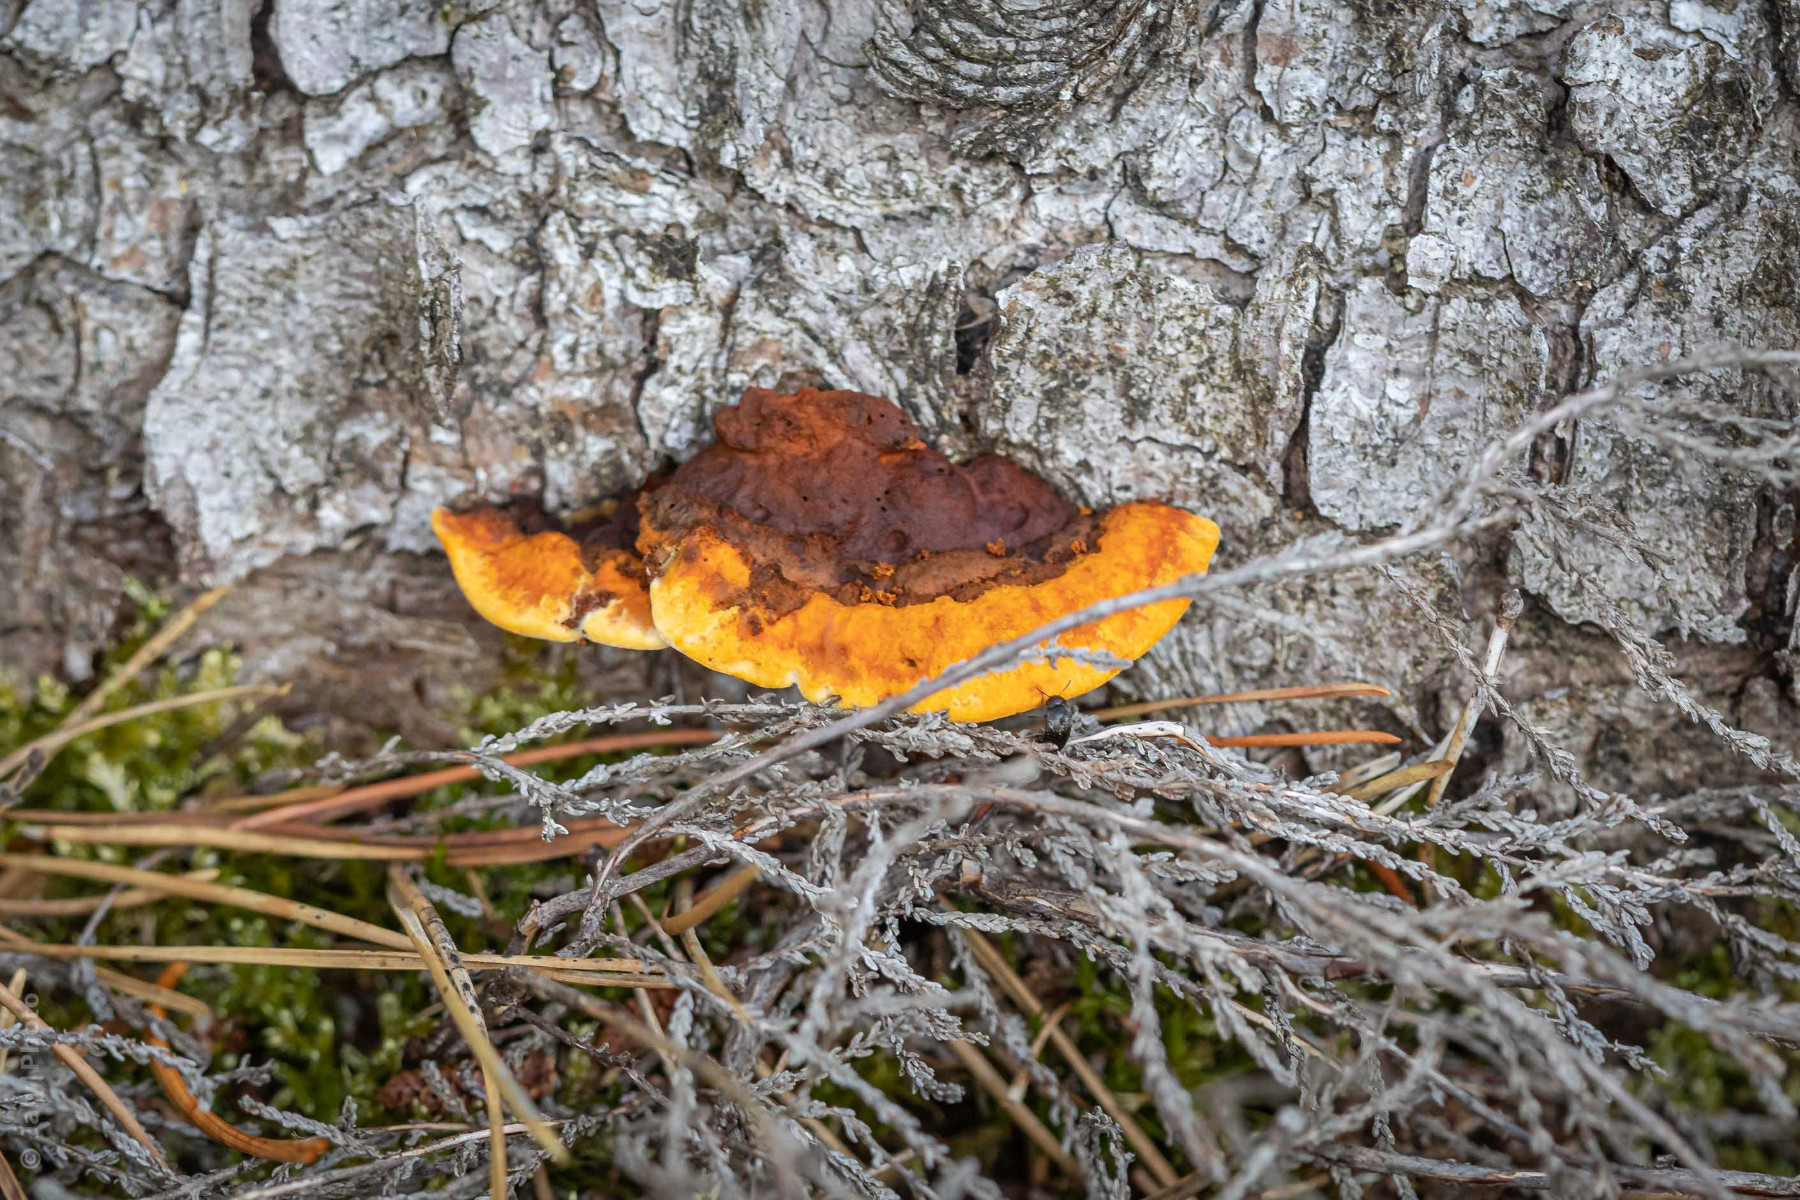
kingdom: Fungi
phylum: Basidiomycota
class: Agaricomycetes
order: Gloeophyllales
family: Gloeophyllaceae
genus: Gloeophyllum
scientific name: Gloeophyllum sepiarium
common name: fyrre-korkhat
